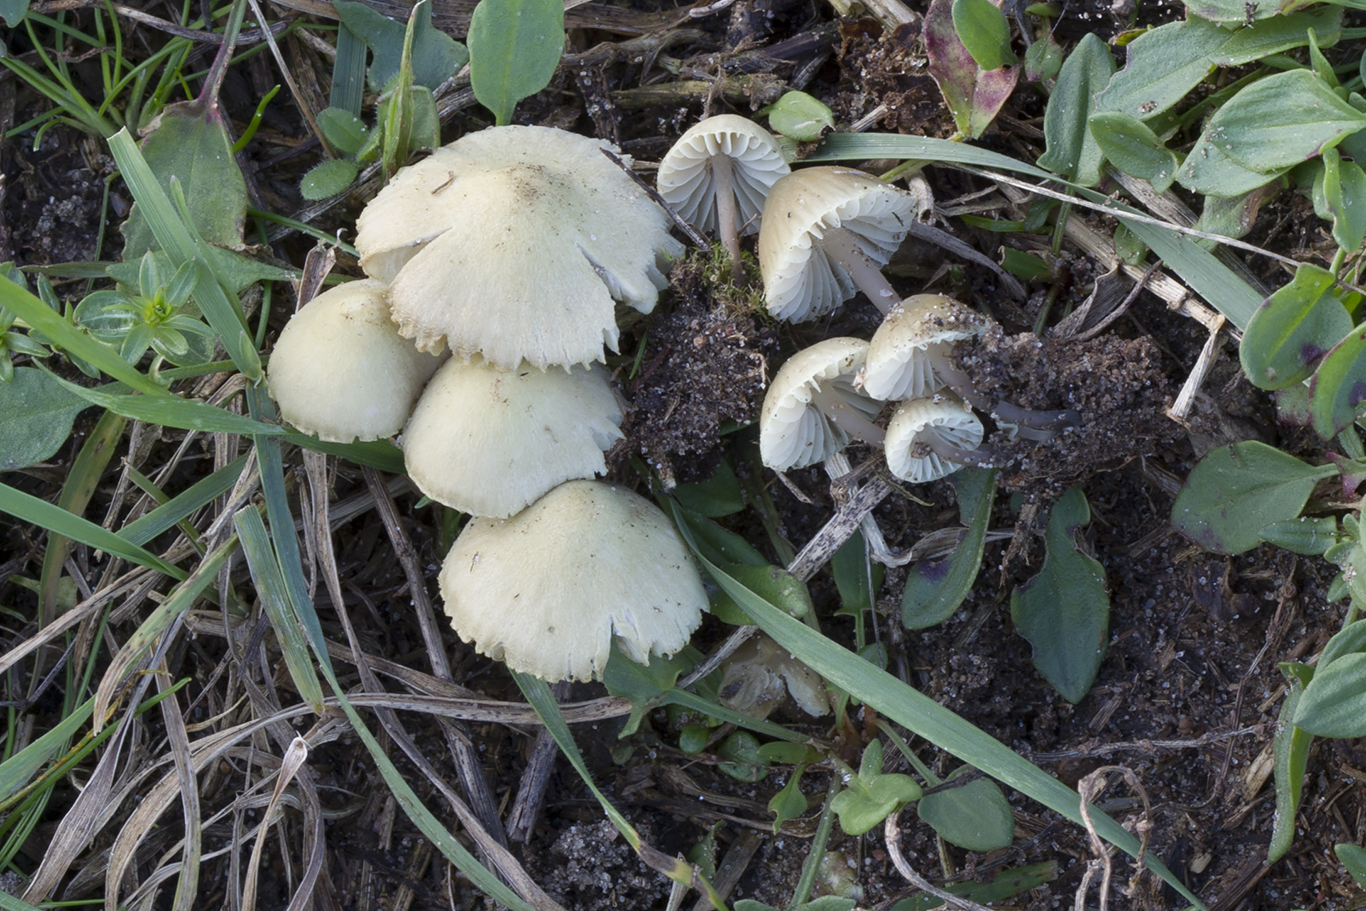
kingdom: Fungi
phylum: Basidiomycota
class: Agaricomycetes
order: Agaricales
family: Mycenaceae
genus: Mycena
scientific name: Mycena arcangeliana
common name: oliven-huesvamp
